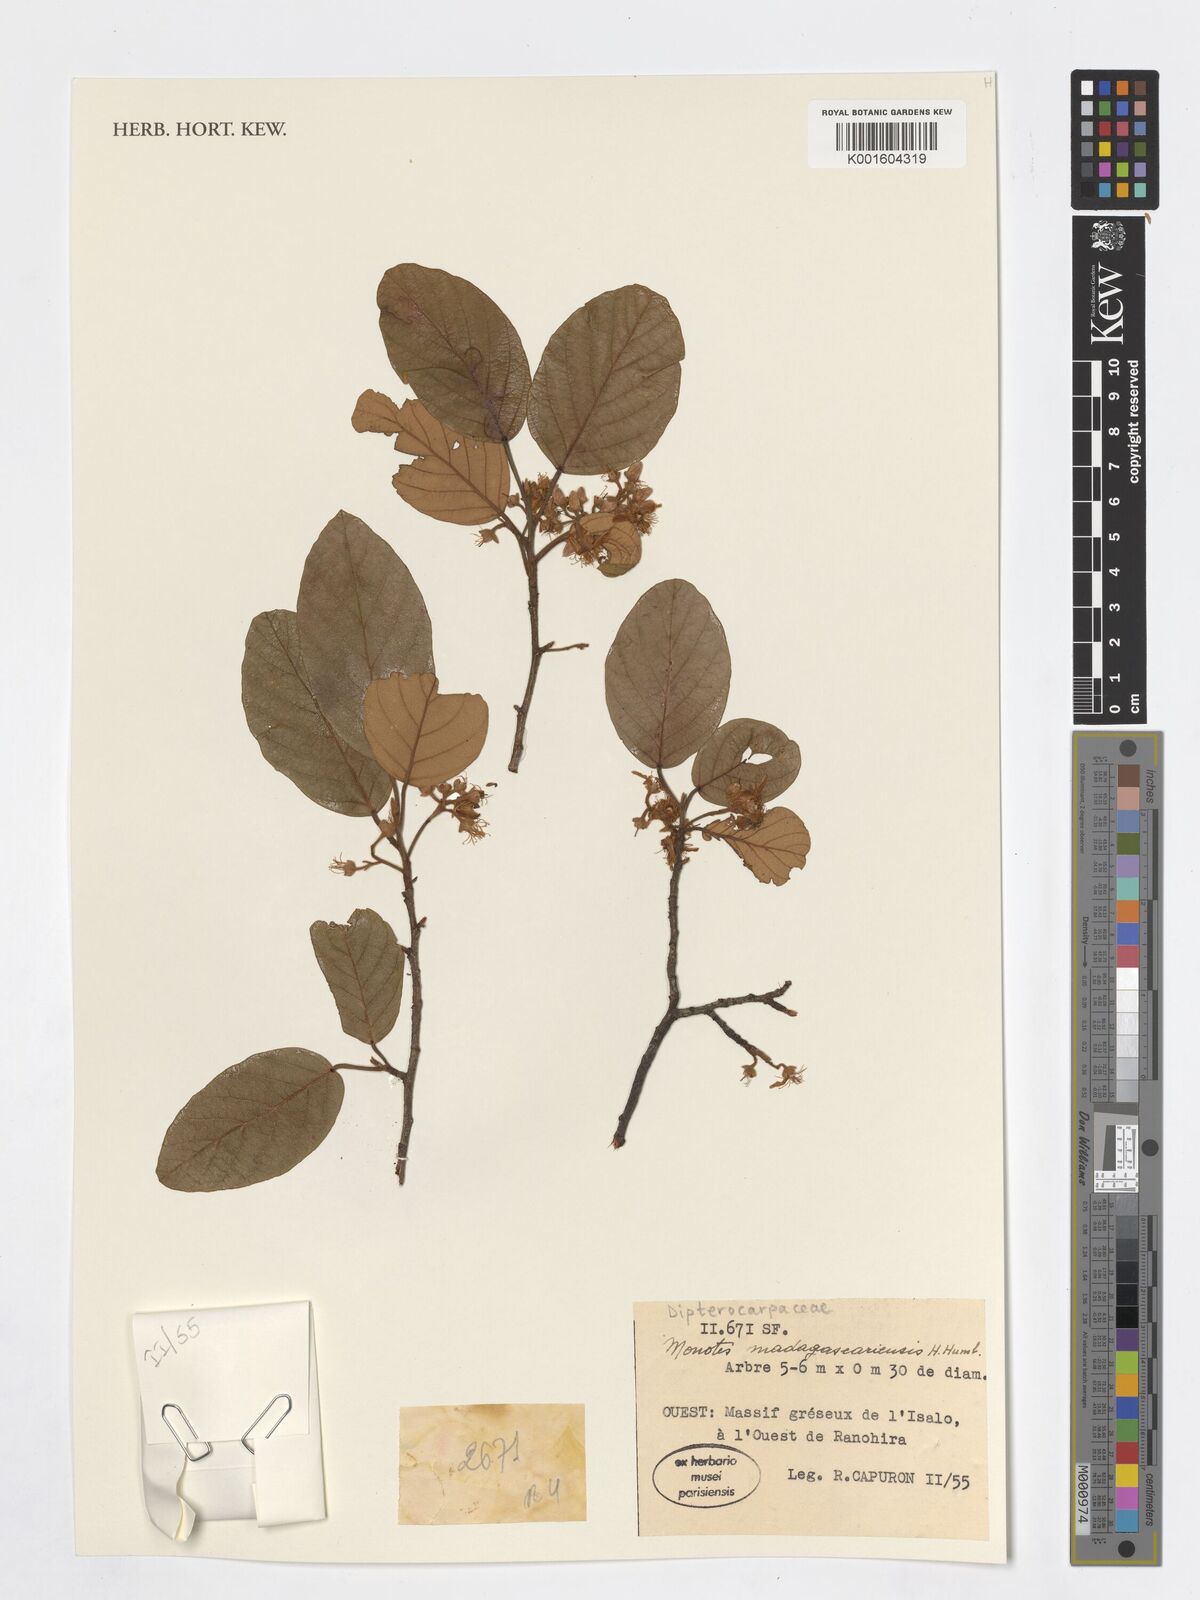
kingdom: Plantae
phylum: Tracheophyta
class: Magnoliopsida
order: Malvales
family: Dipterocarpaceae
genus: Monotes
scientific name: Monotes madagascariensis
